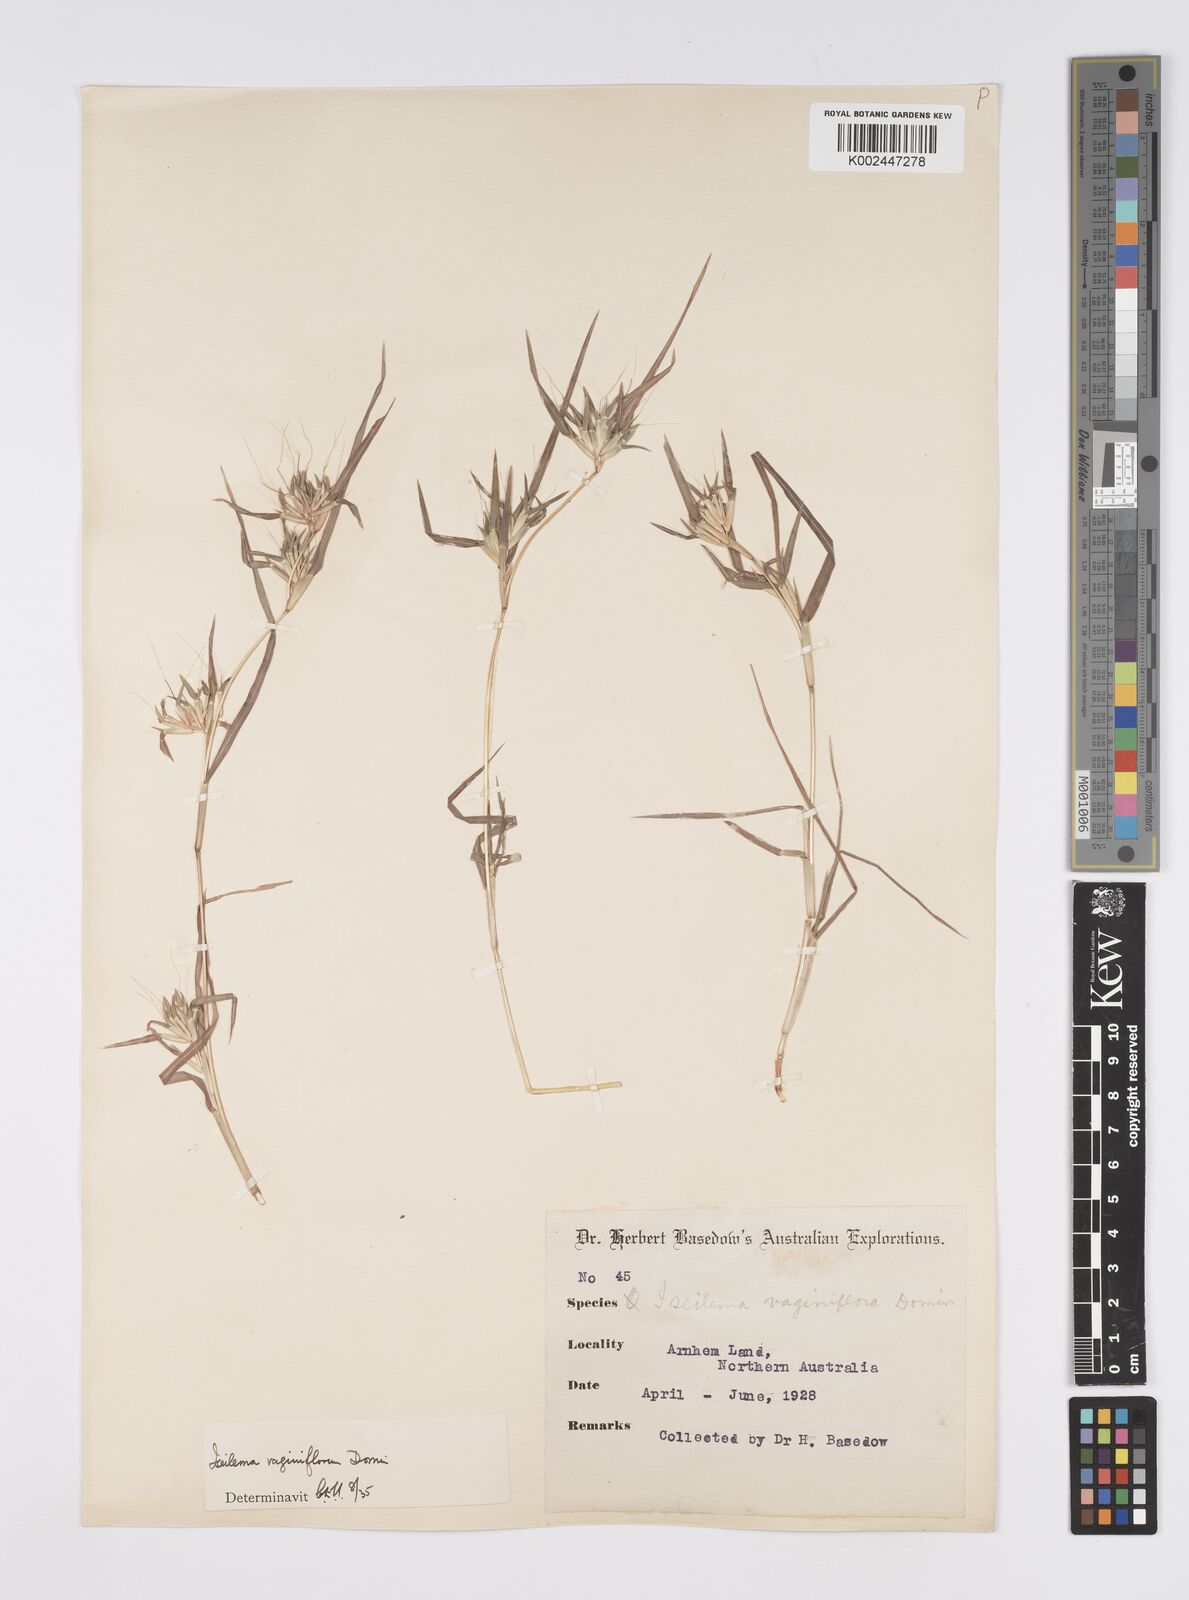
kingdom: Plantae
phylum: Tracheophyta
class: Liliopsida
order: Poales
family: Poaceae
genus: Iseilema
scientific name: Iseilema vaginiflorum
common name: Red flinders grass
